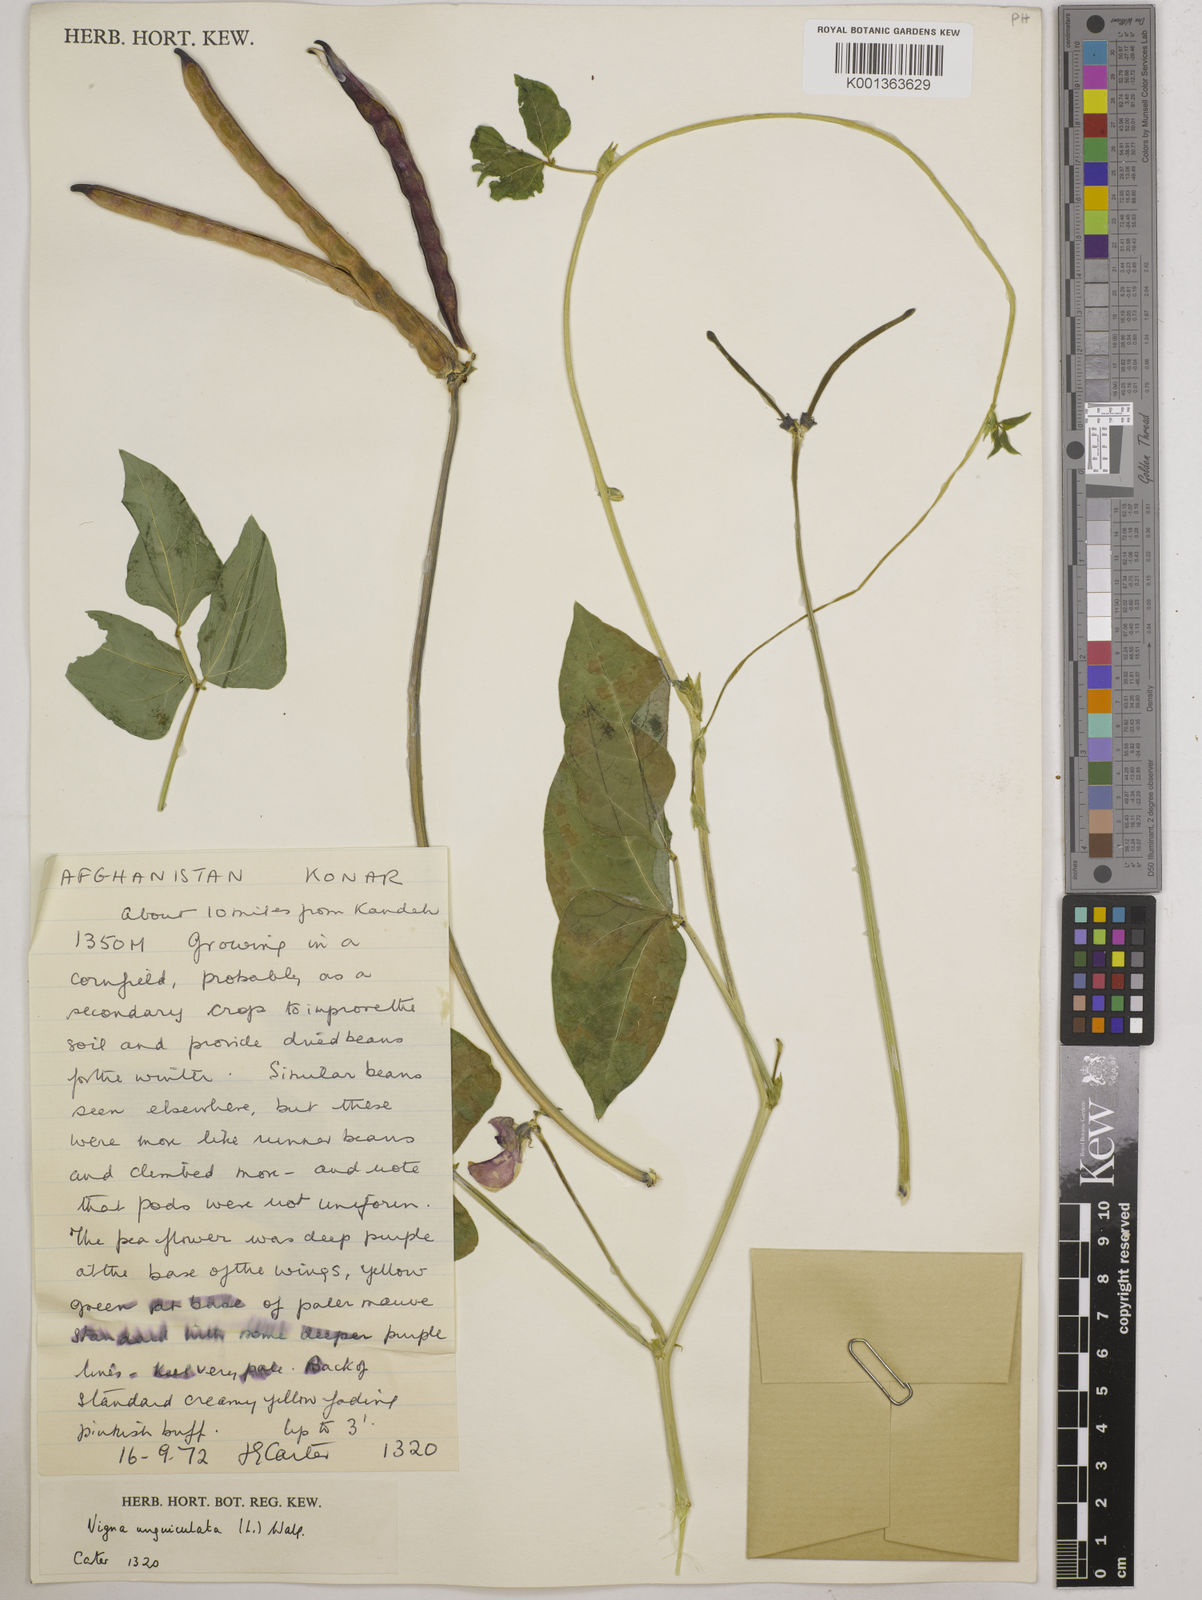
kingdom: Plantae
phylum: Tracheophyta
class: Magnoliopsida
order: Fabales
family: Fabaceae
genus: Vigna
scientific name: Vigna unguiculata
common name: Cowpea
